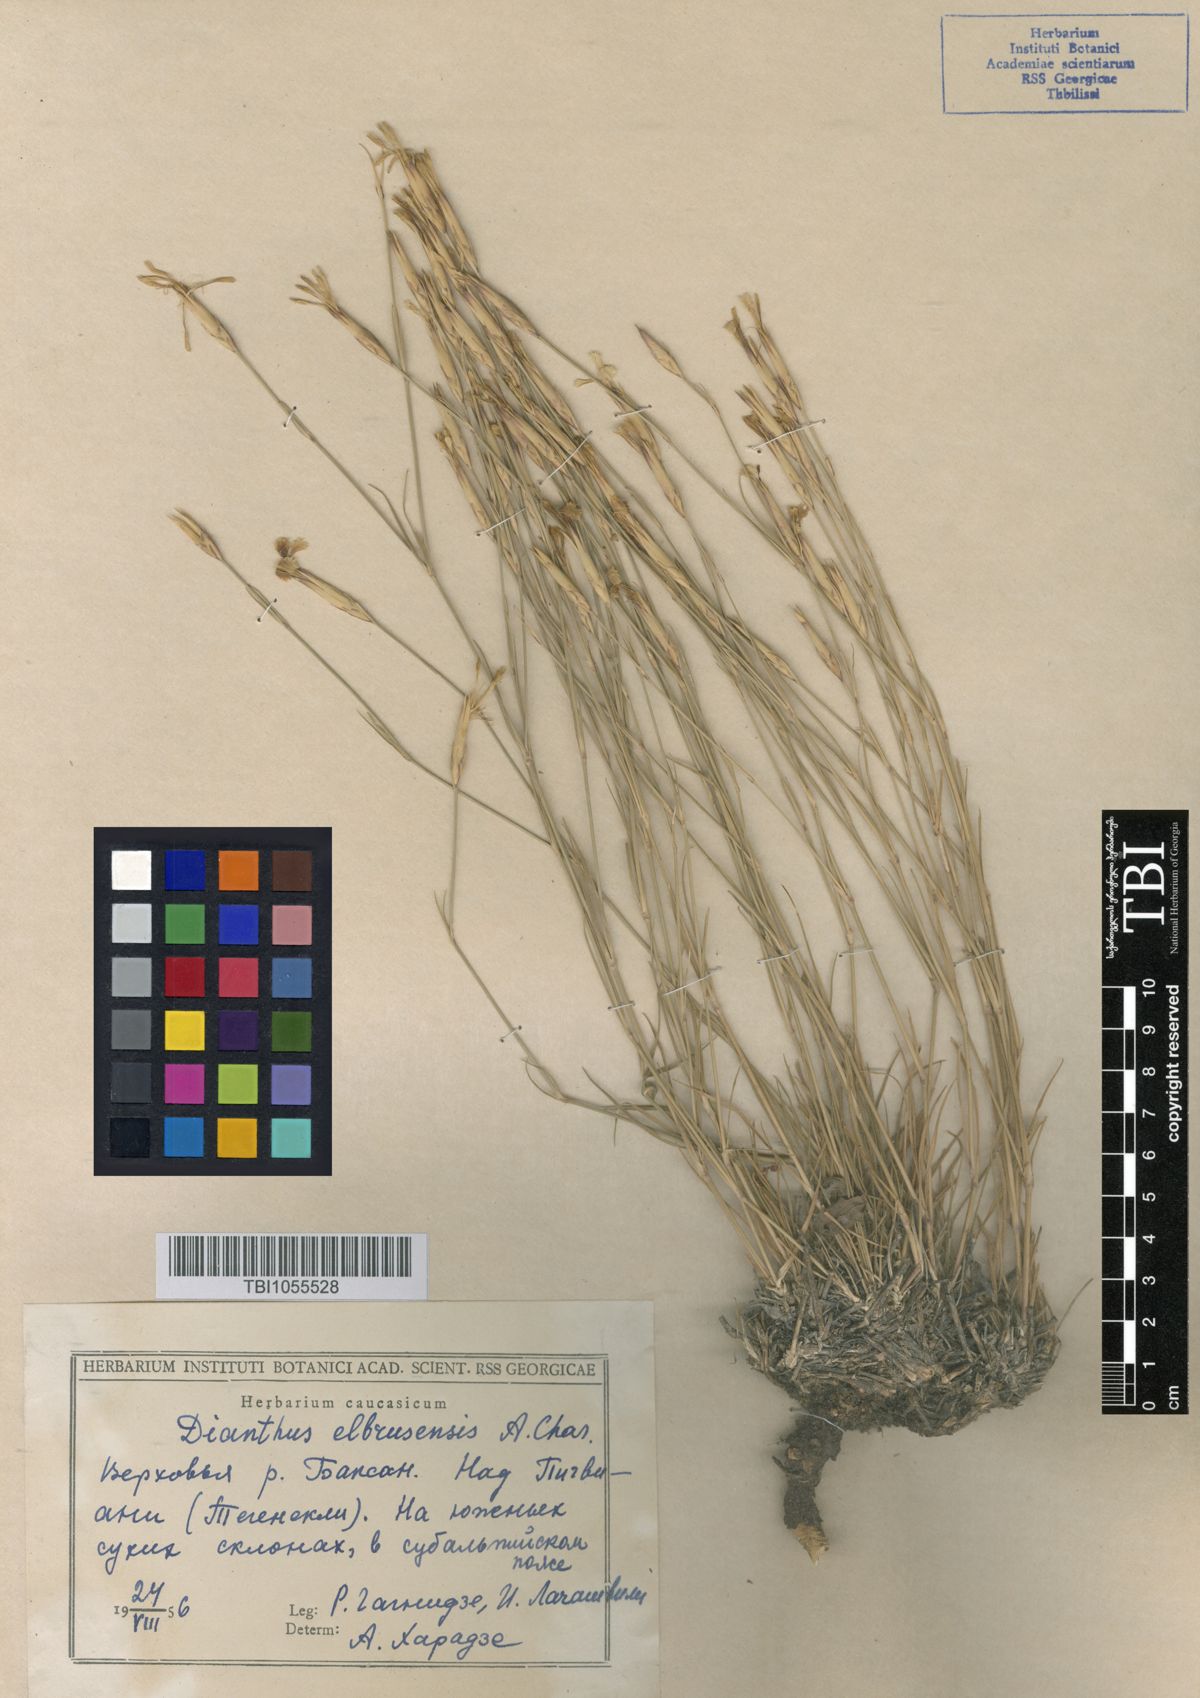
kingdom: Plantae
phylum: Tracheophyta
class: Magnoliopsida
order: Caryophyllales
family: Caryophyllaceae
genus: Dianthus
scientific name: Dianthus
